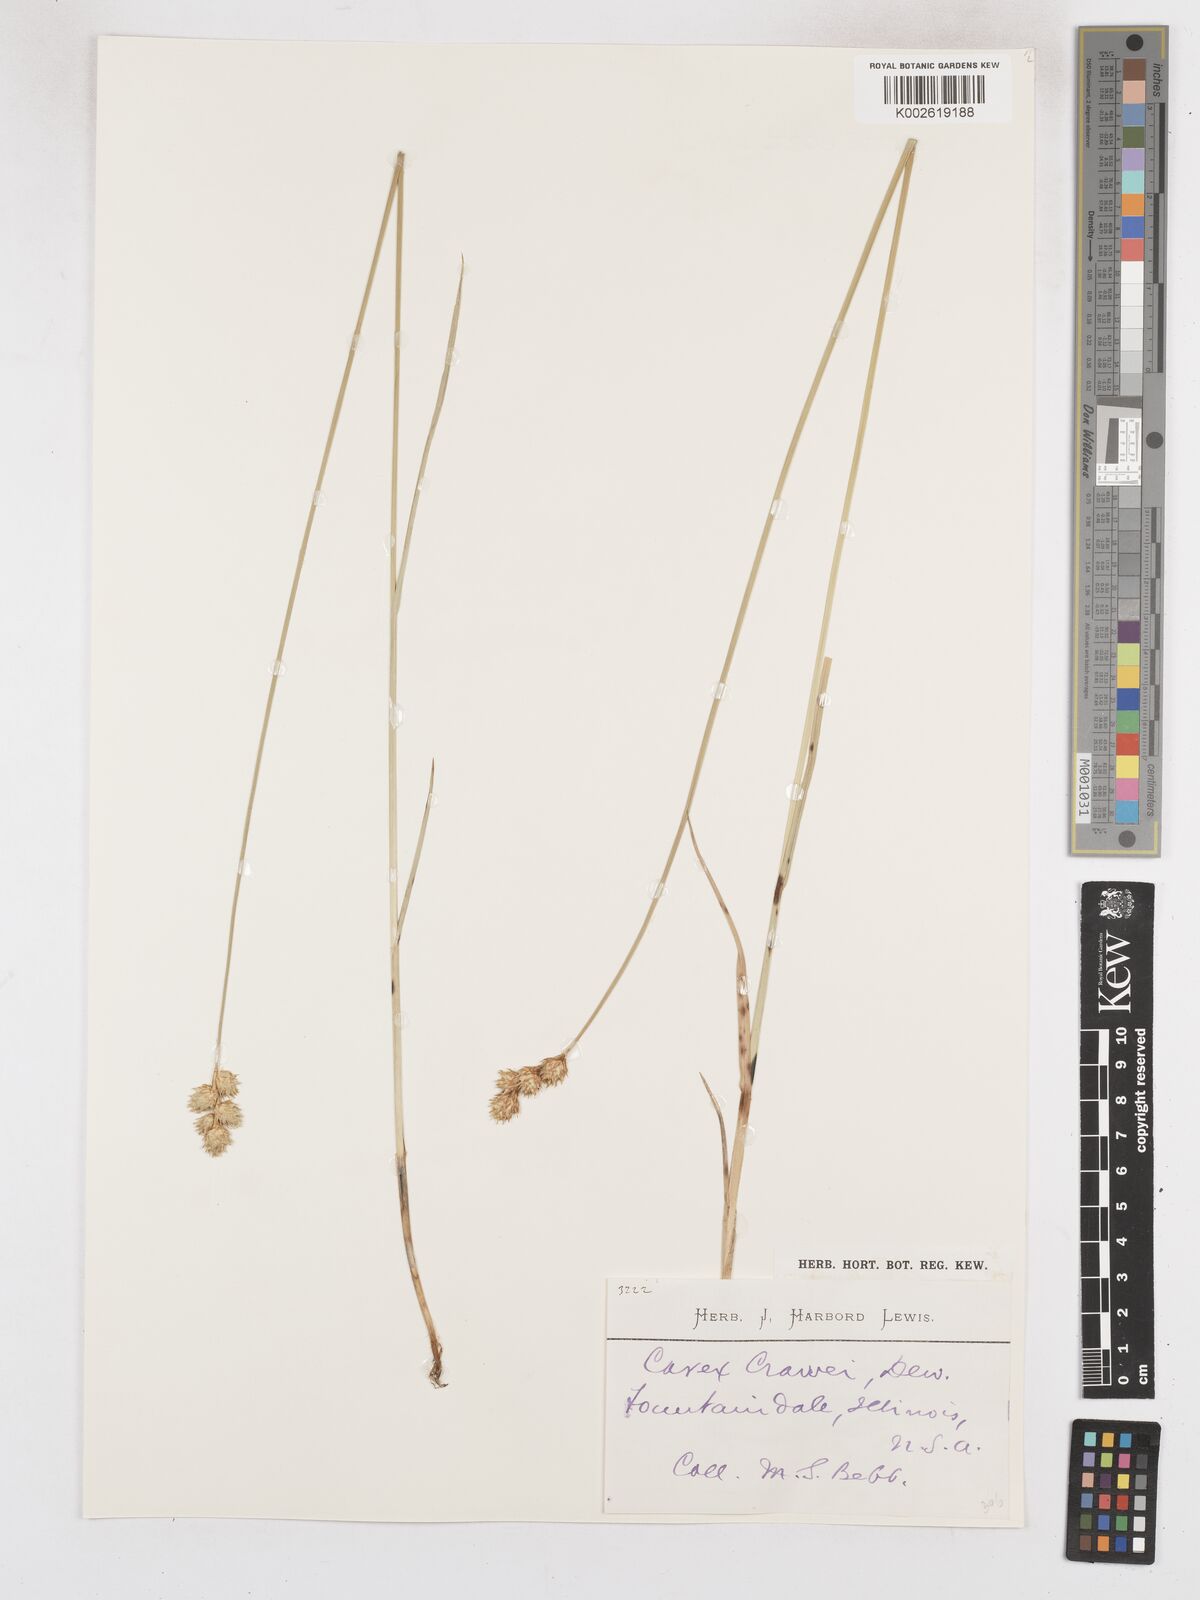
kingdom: Plantae
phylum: Tracheophyta
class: Liliopsida
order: Poales
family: Cyperaceae
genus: Carex
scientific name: Carex crawei
